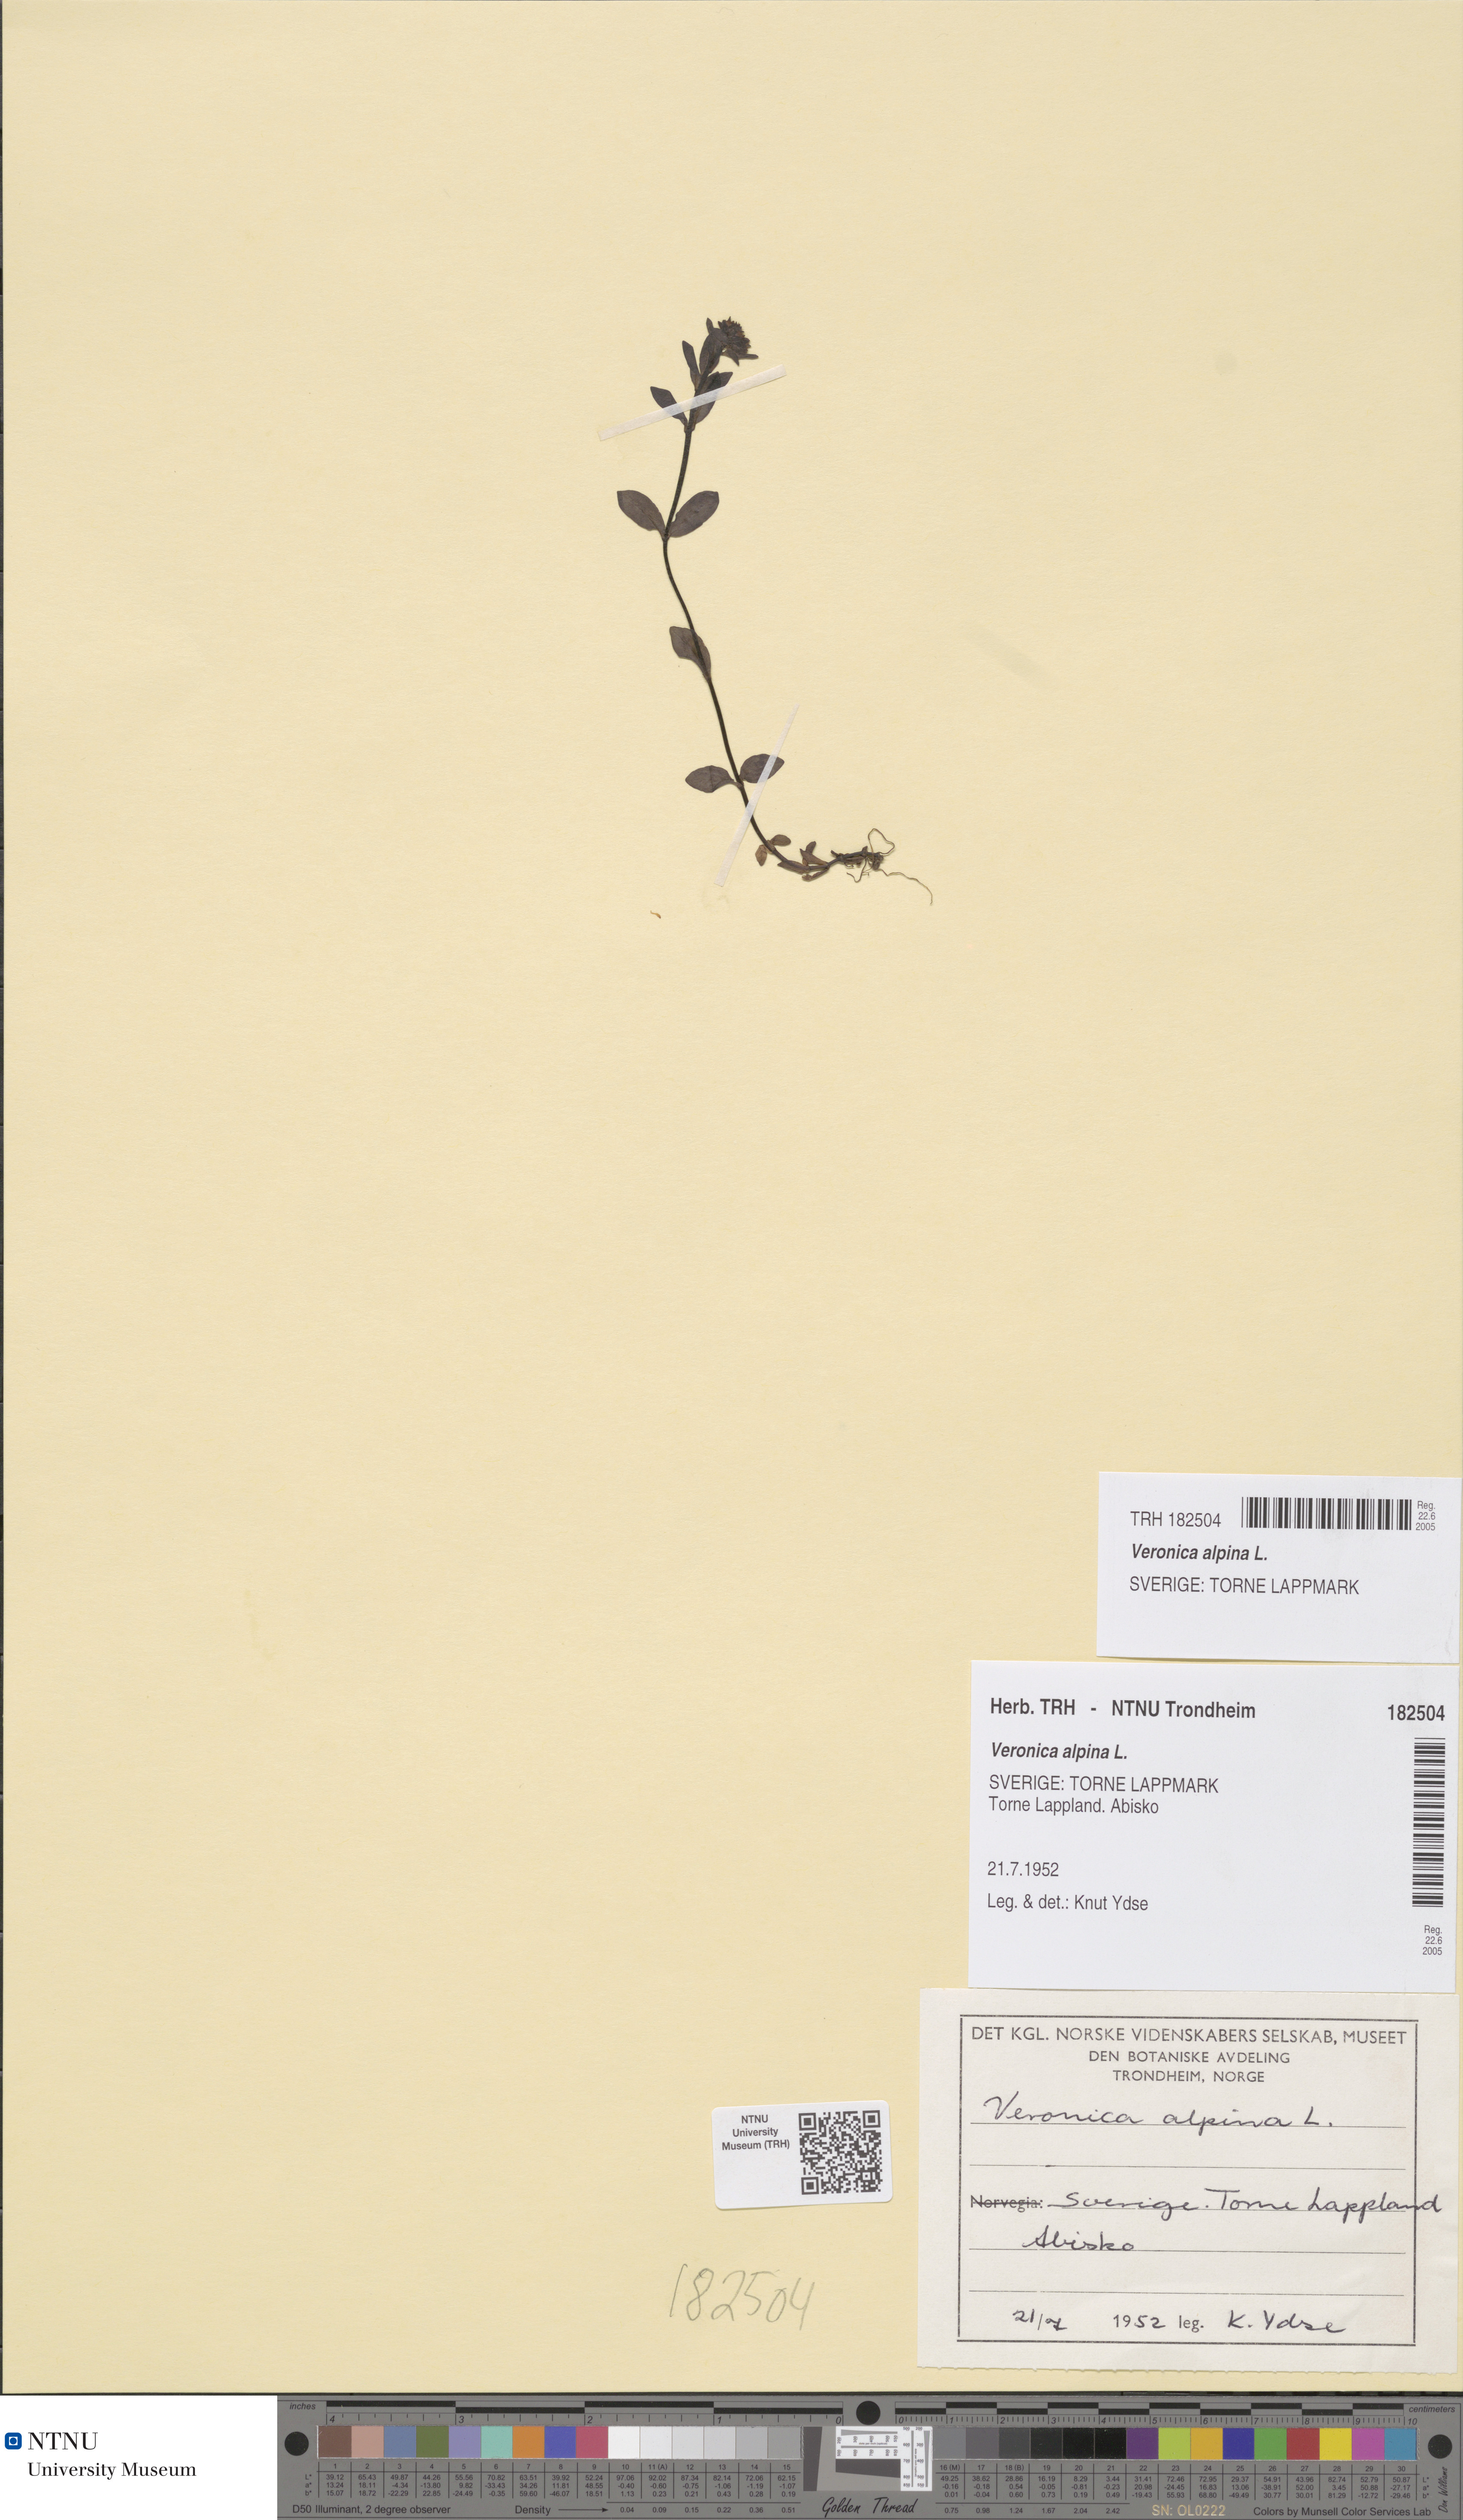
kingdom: Plantae
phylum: Tracheophyta
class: Magnoliopsida
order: Lamiales
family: Plantaginaceae
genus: Veronica
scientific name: Veronica alpina
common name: Alpine speedwell
